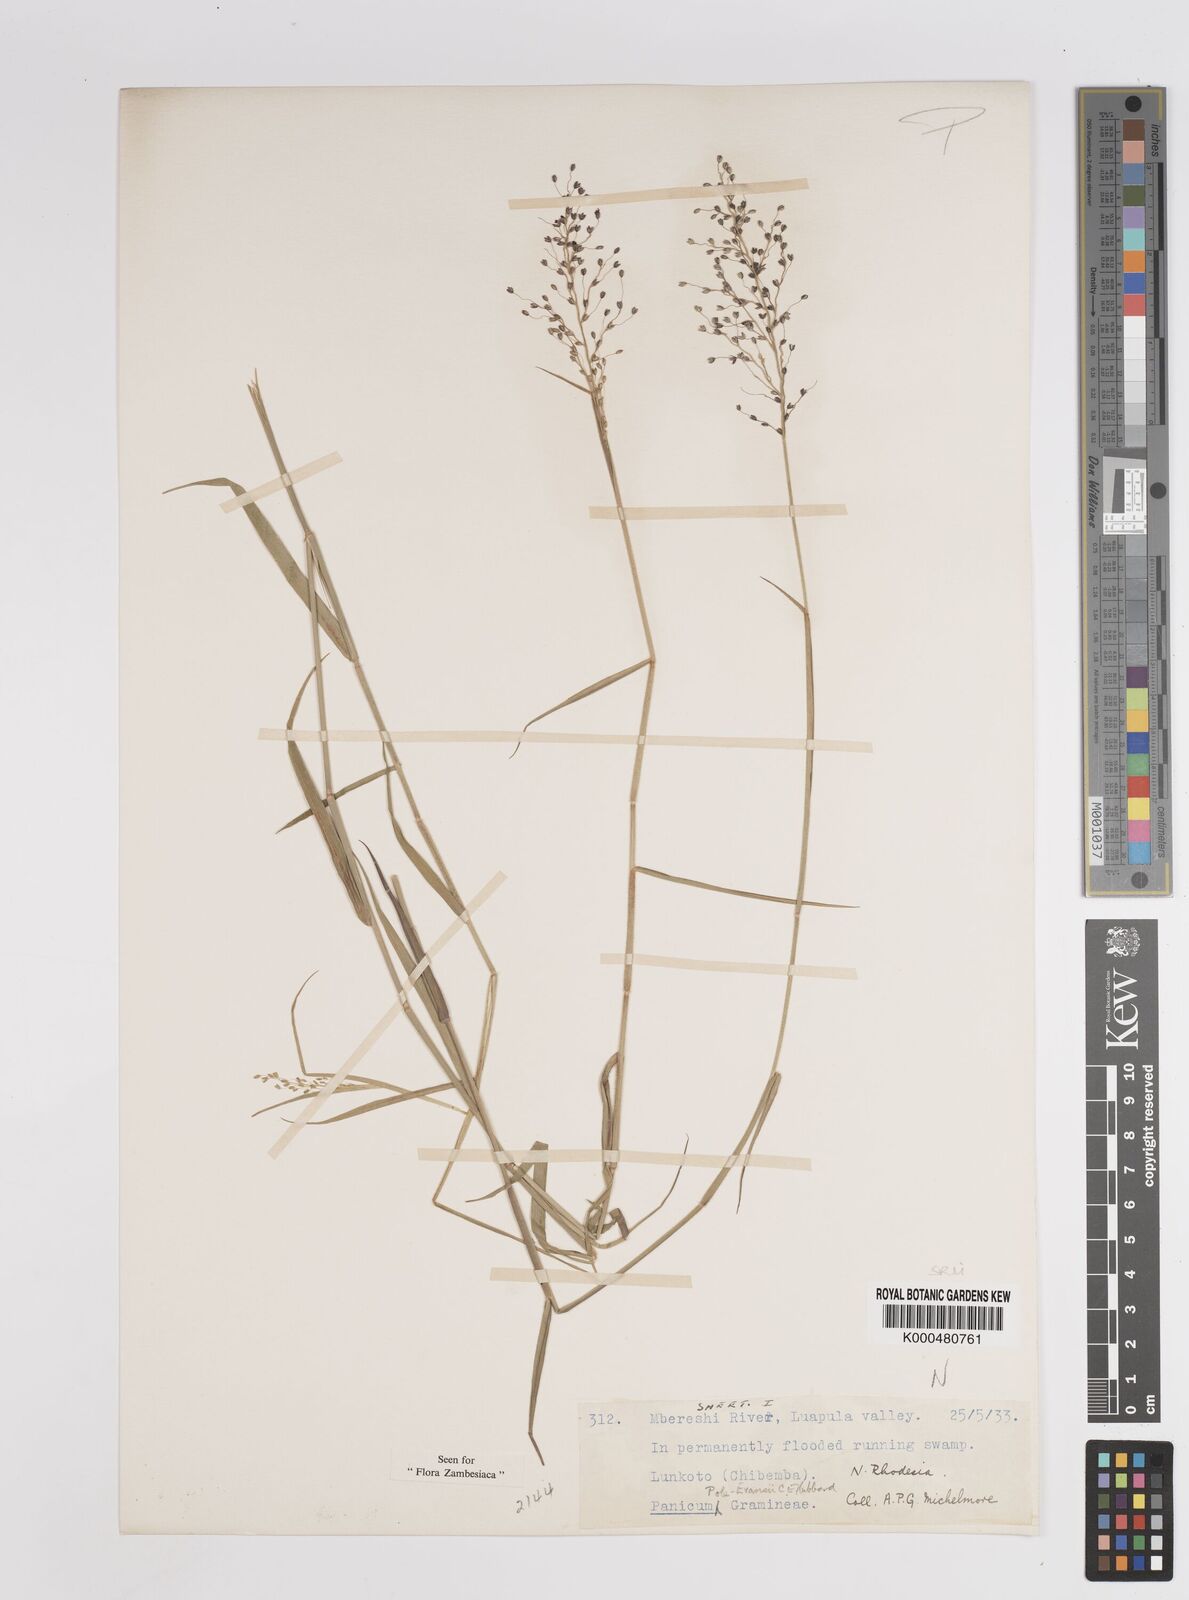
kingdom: Plantae
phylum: Tracheophyta
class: Liliopsida
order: Poales
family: Poaceae
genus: Adenochloa
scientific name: Adenochloa pole-evansii
